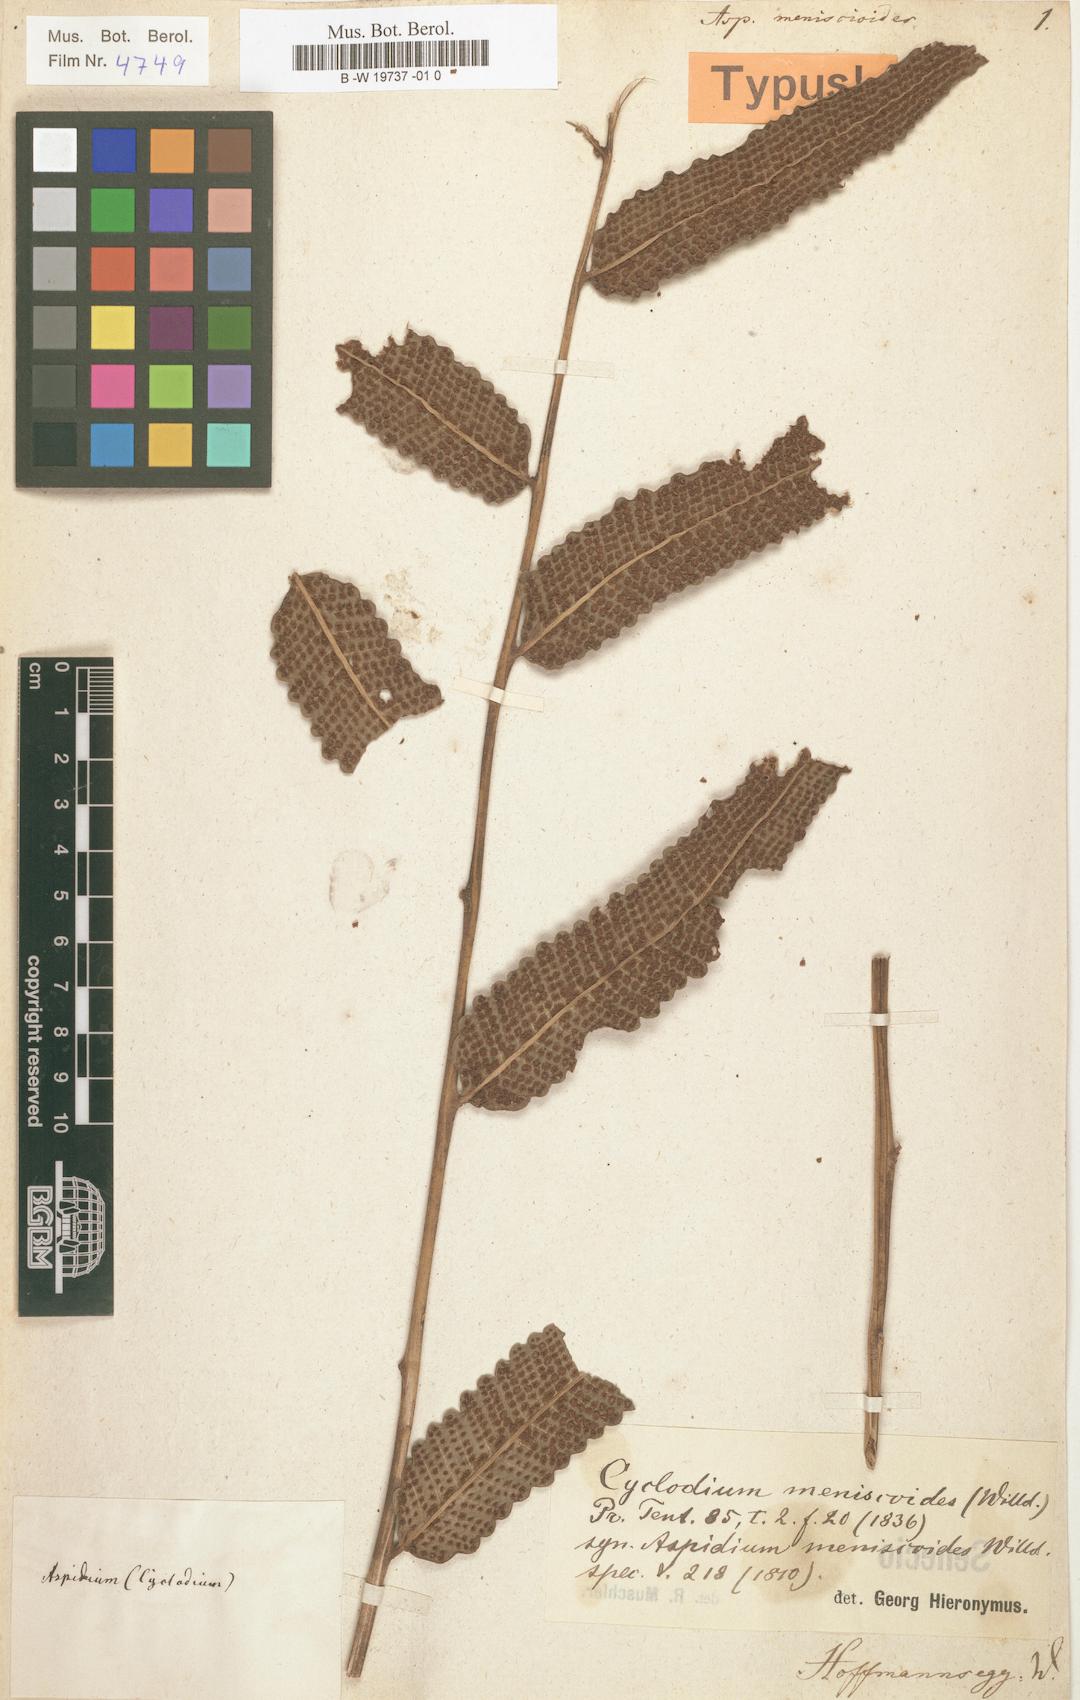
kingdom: Plantae
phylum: Tracheophyta
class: Polypodiopsida
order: Polypodiales
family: Dryopteridaceae
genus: Cyclodium
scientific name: Cyclodium meniscioides
